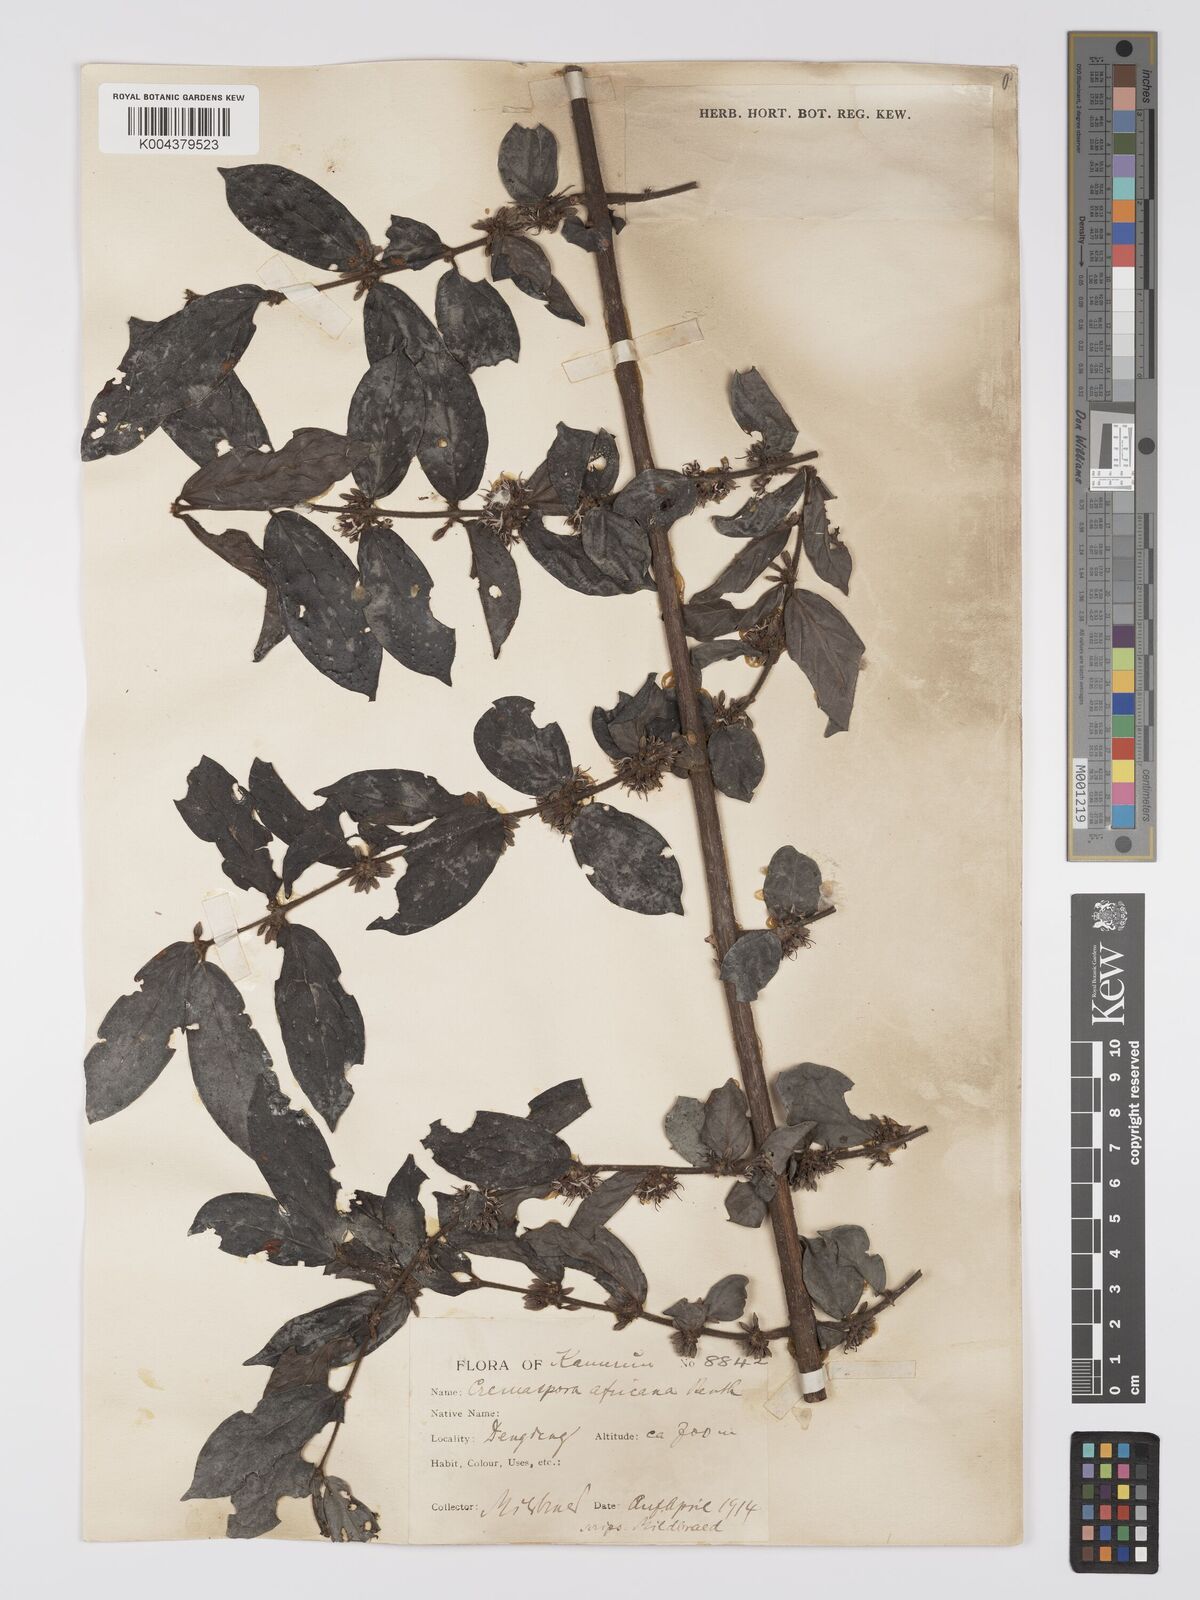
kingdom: Plantae
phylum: Tracheophyta
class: Magnoliopsida
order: Gentianales
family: Rubiaceae
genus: Cremaspora
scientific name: Cremaspora triflora
